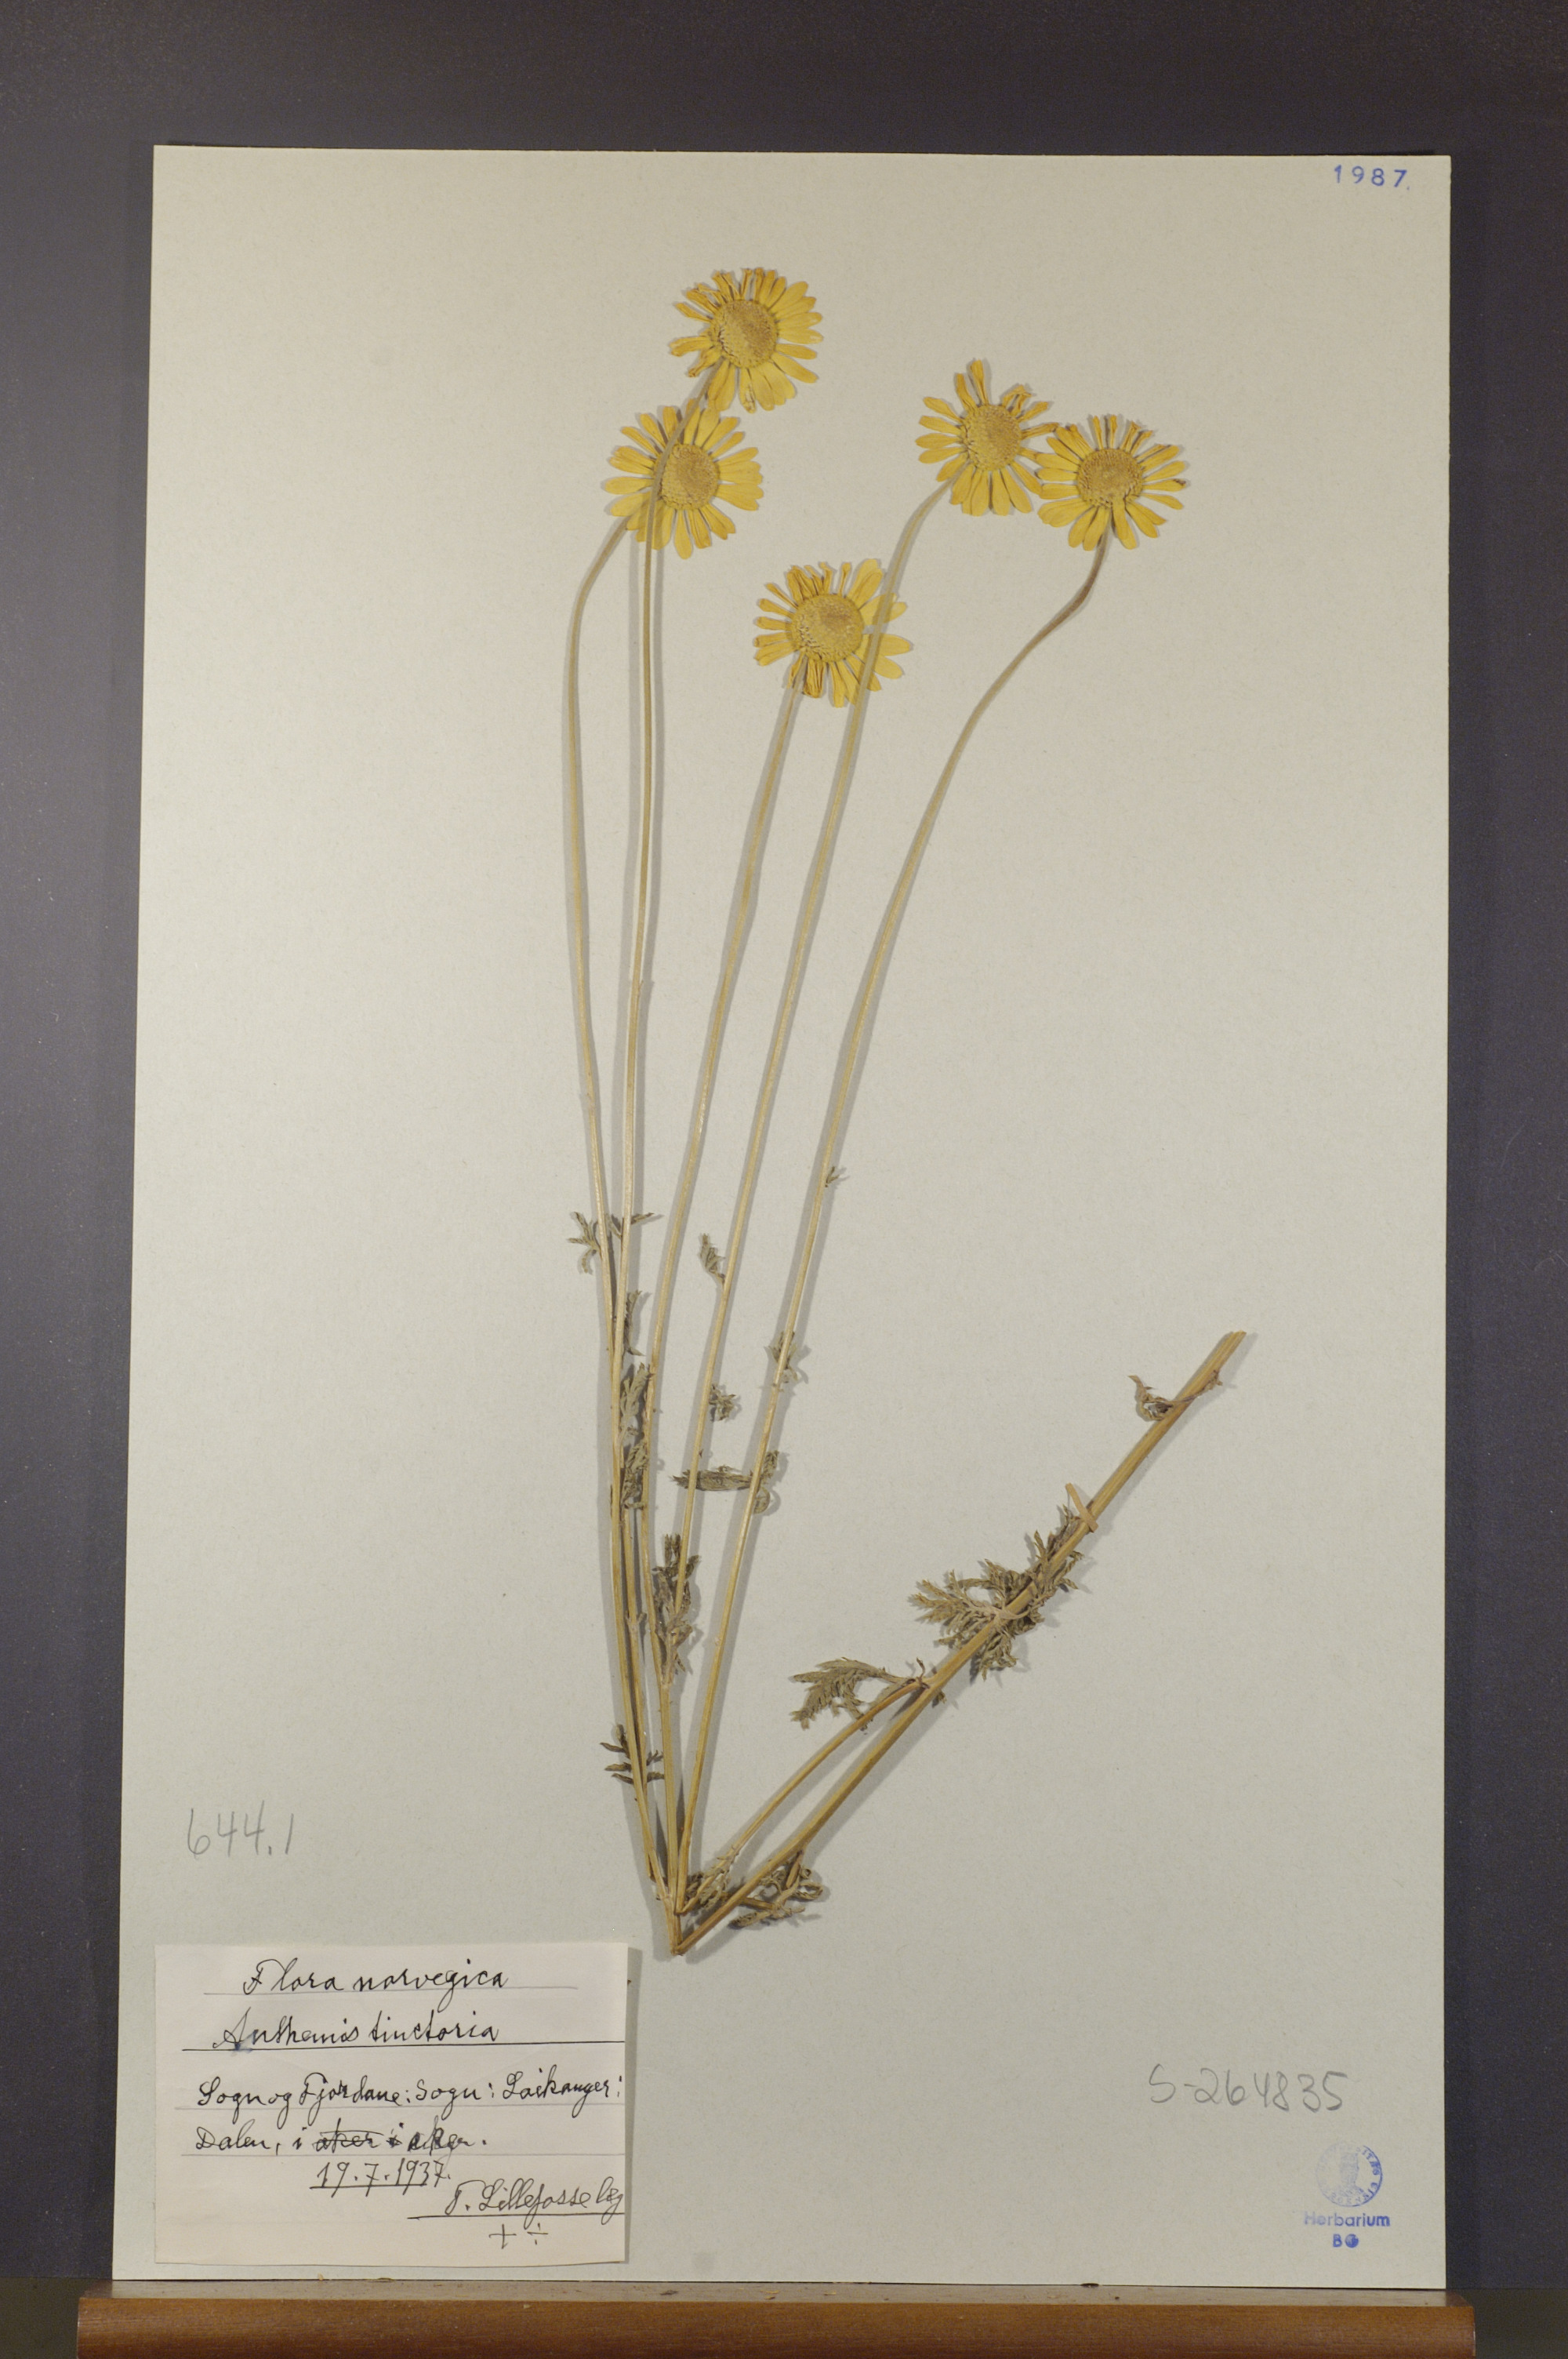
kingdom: Plantae
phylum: Tracheophyta
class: Magnoliopsida
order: Asterales
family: Asteraceae
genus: Cota
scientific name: Cota tinctoria
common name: Golden chamomile
